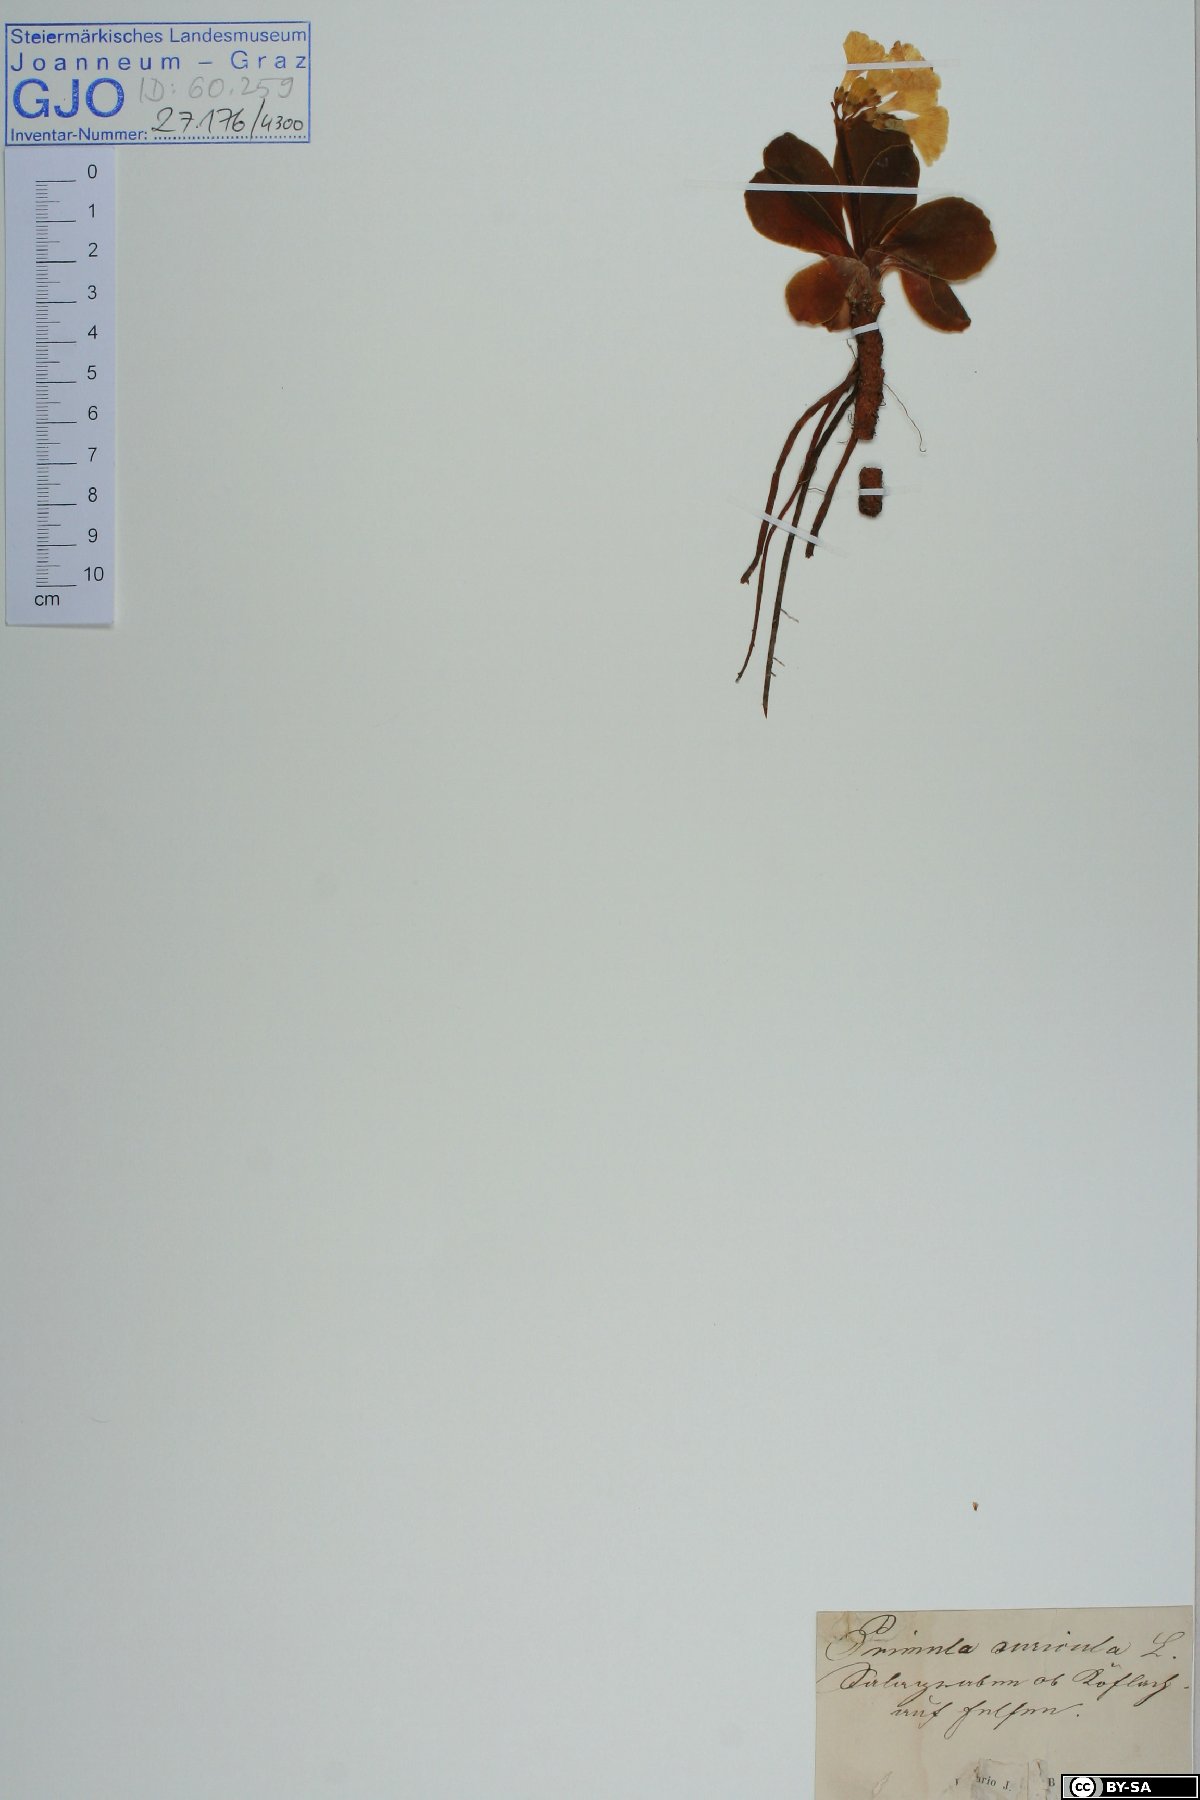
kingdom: Plantae
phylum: Tracheophyta
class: Magnoliopsida
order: Ericales
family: Primulaceae
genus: Primula
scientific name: Primula auricula
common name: Auricula
